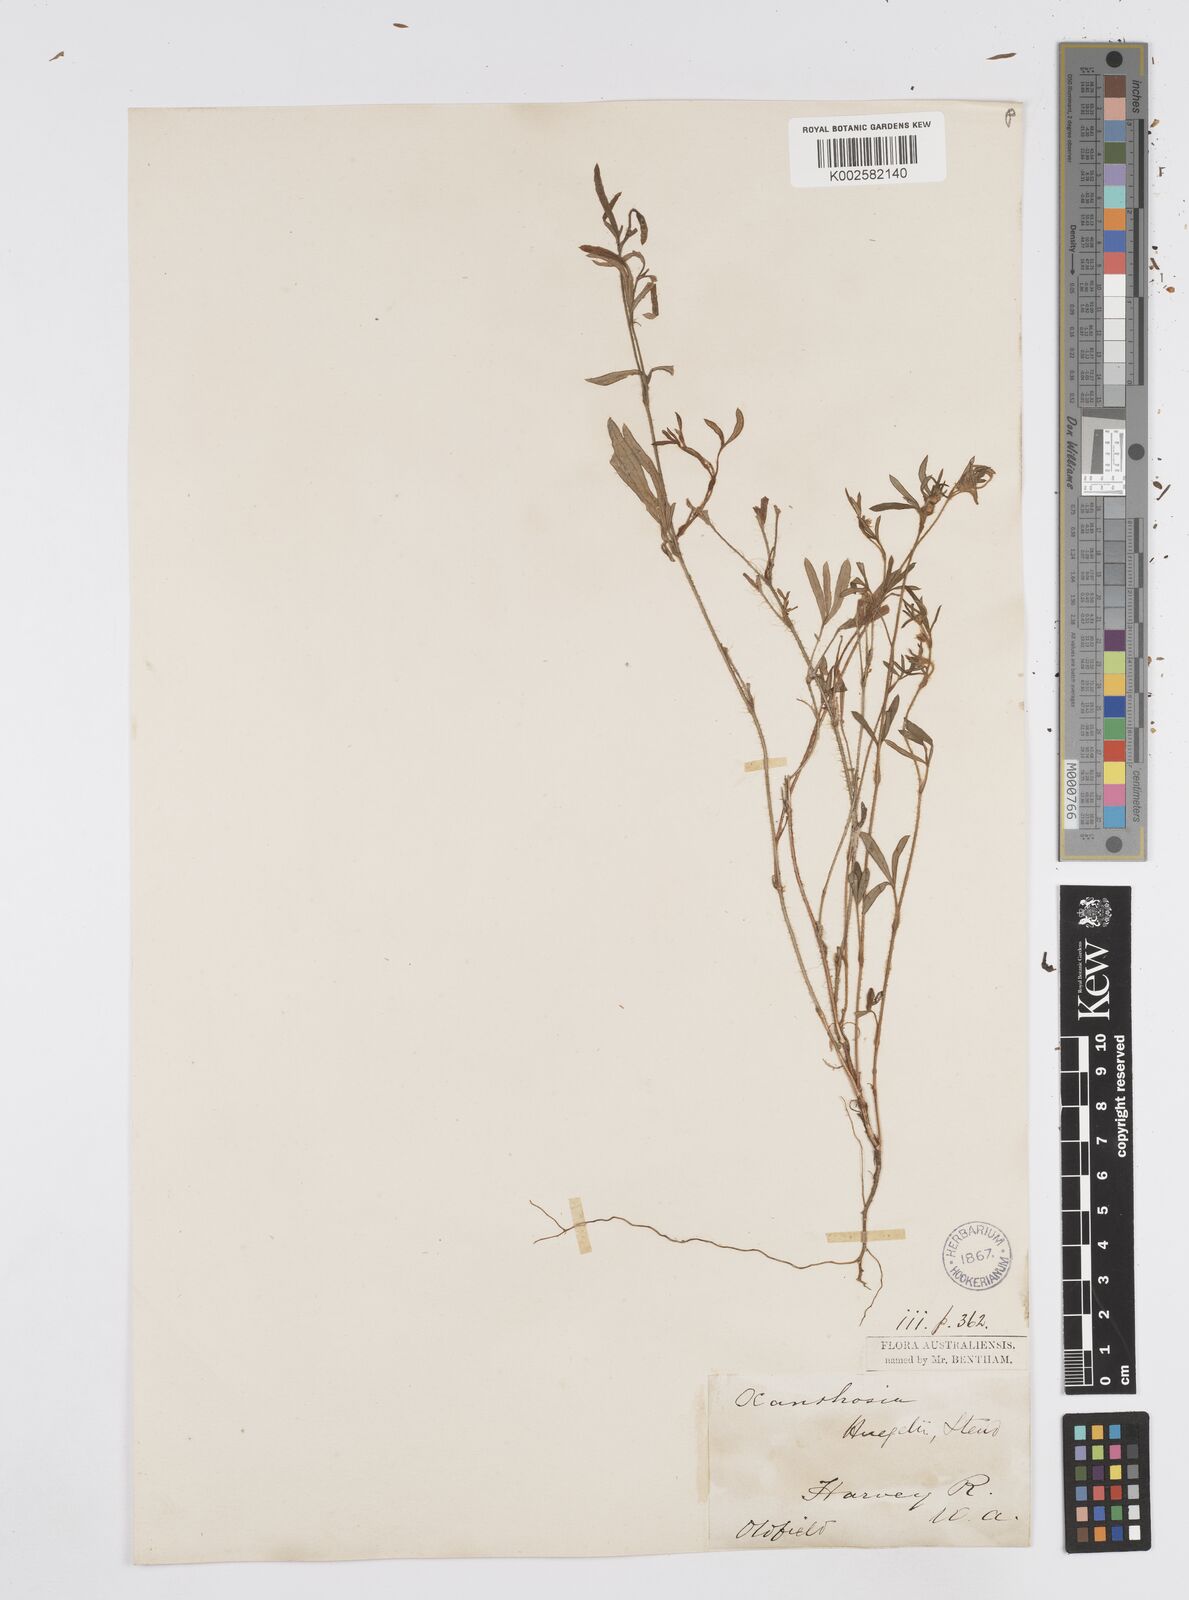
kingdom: Plantae
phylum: Tracheophyta
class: Magnoliopsida
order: Apiales
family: Apiaceae
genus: Xanthosia
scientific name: Xanthosia huegelii
